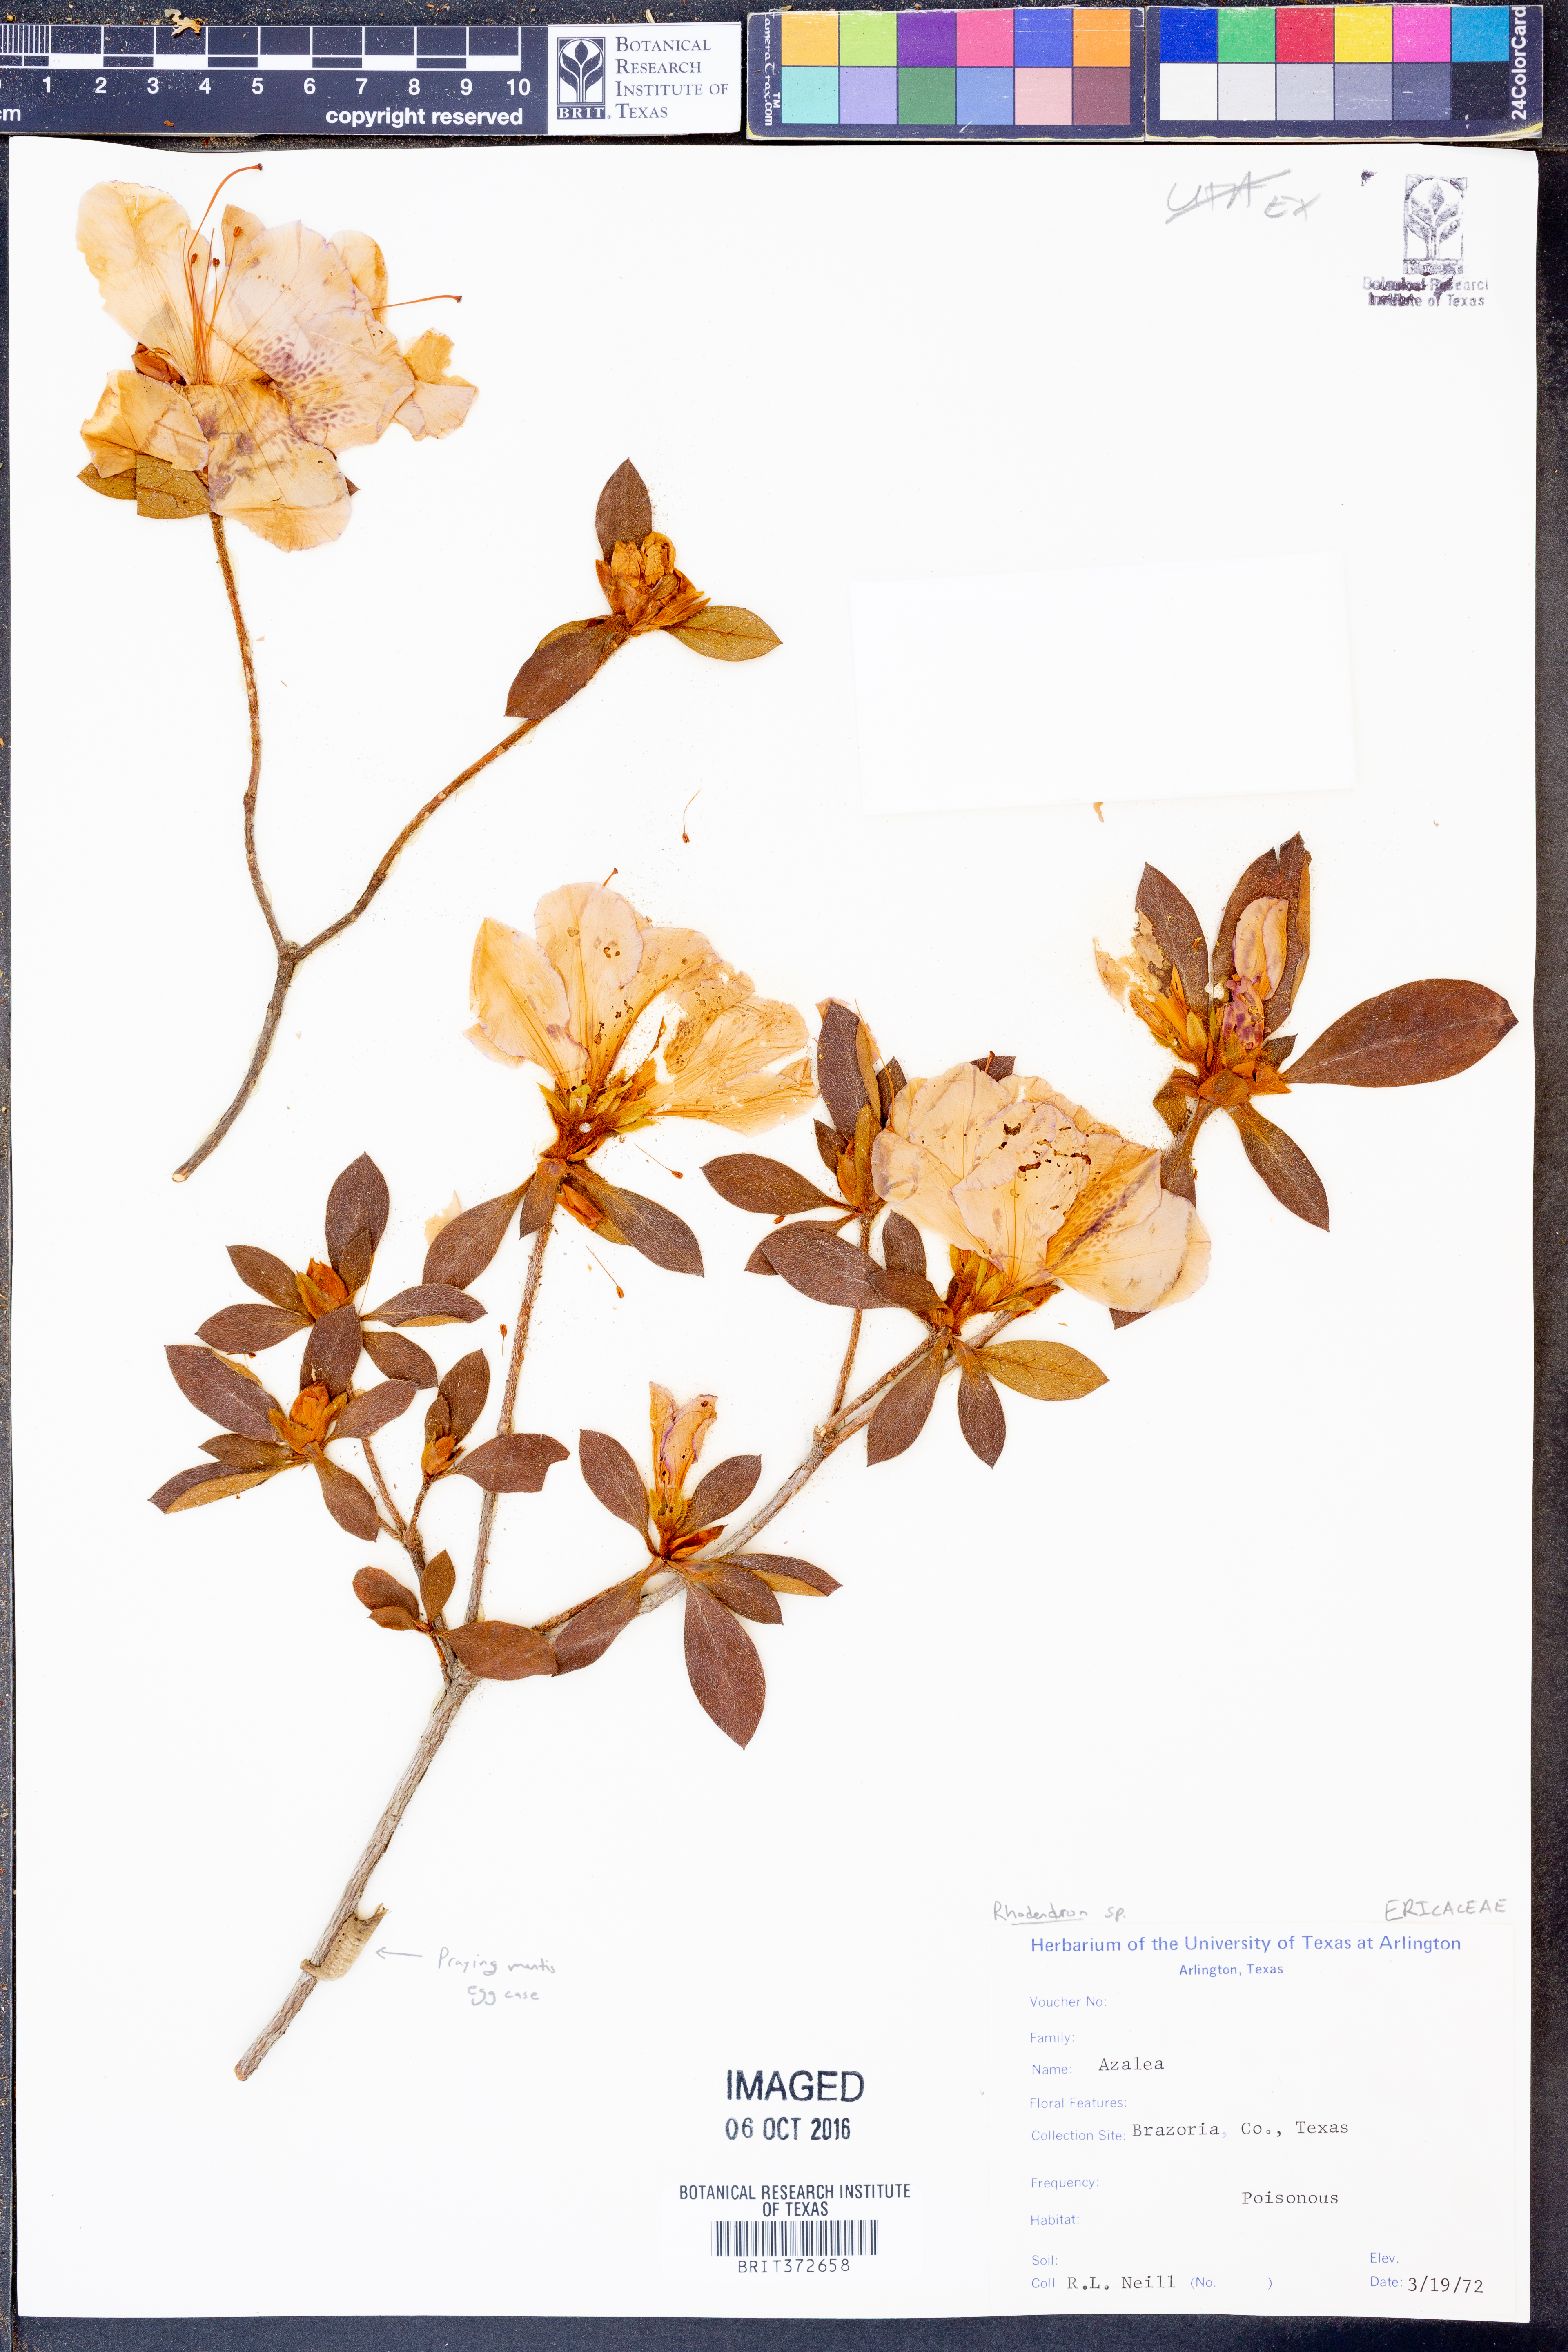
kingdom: Plantae
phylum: Tracheophyta
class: Magnoliopsida
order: Ericales
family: Ericaceae
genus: Rhododendron
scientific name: Rhododendron
